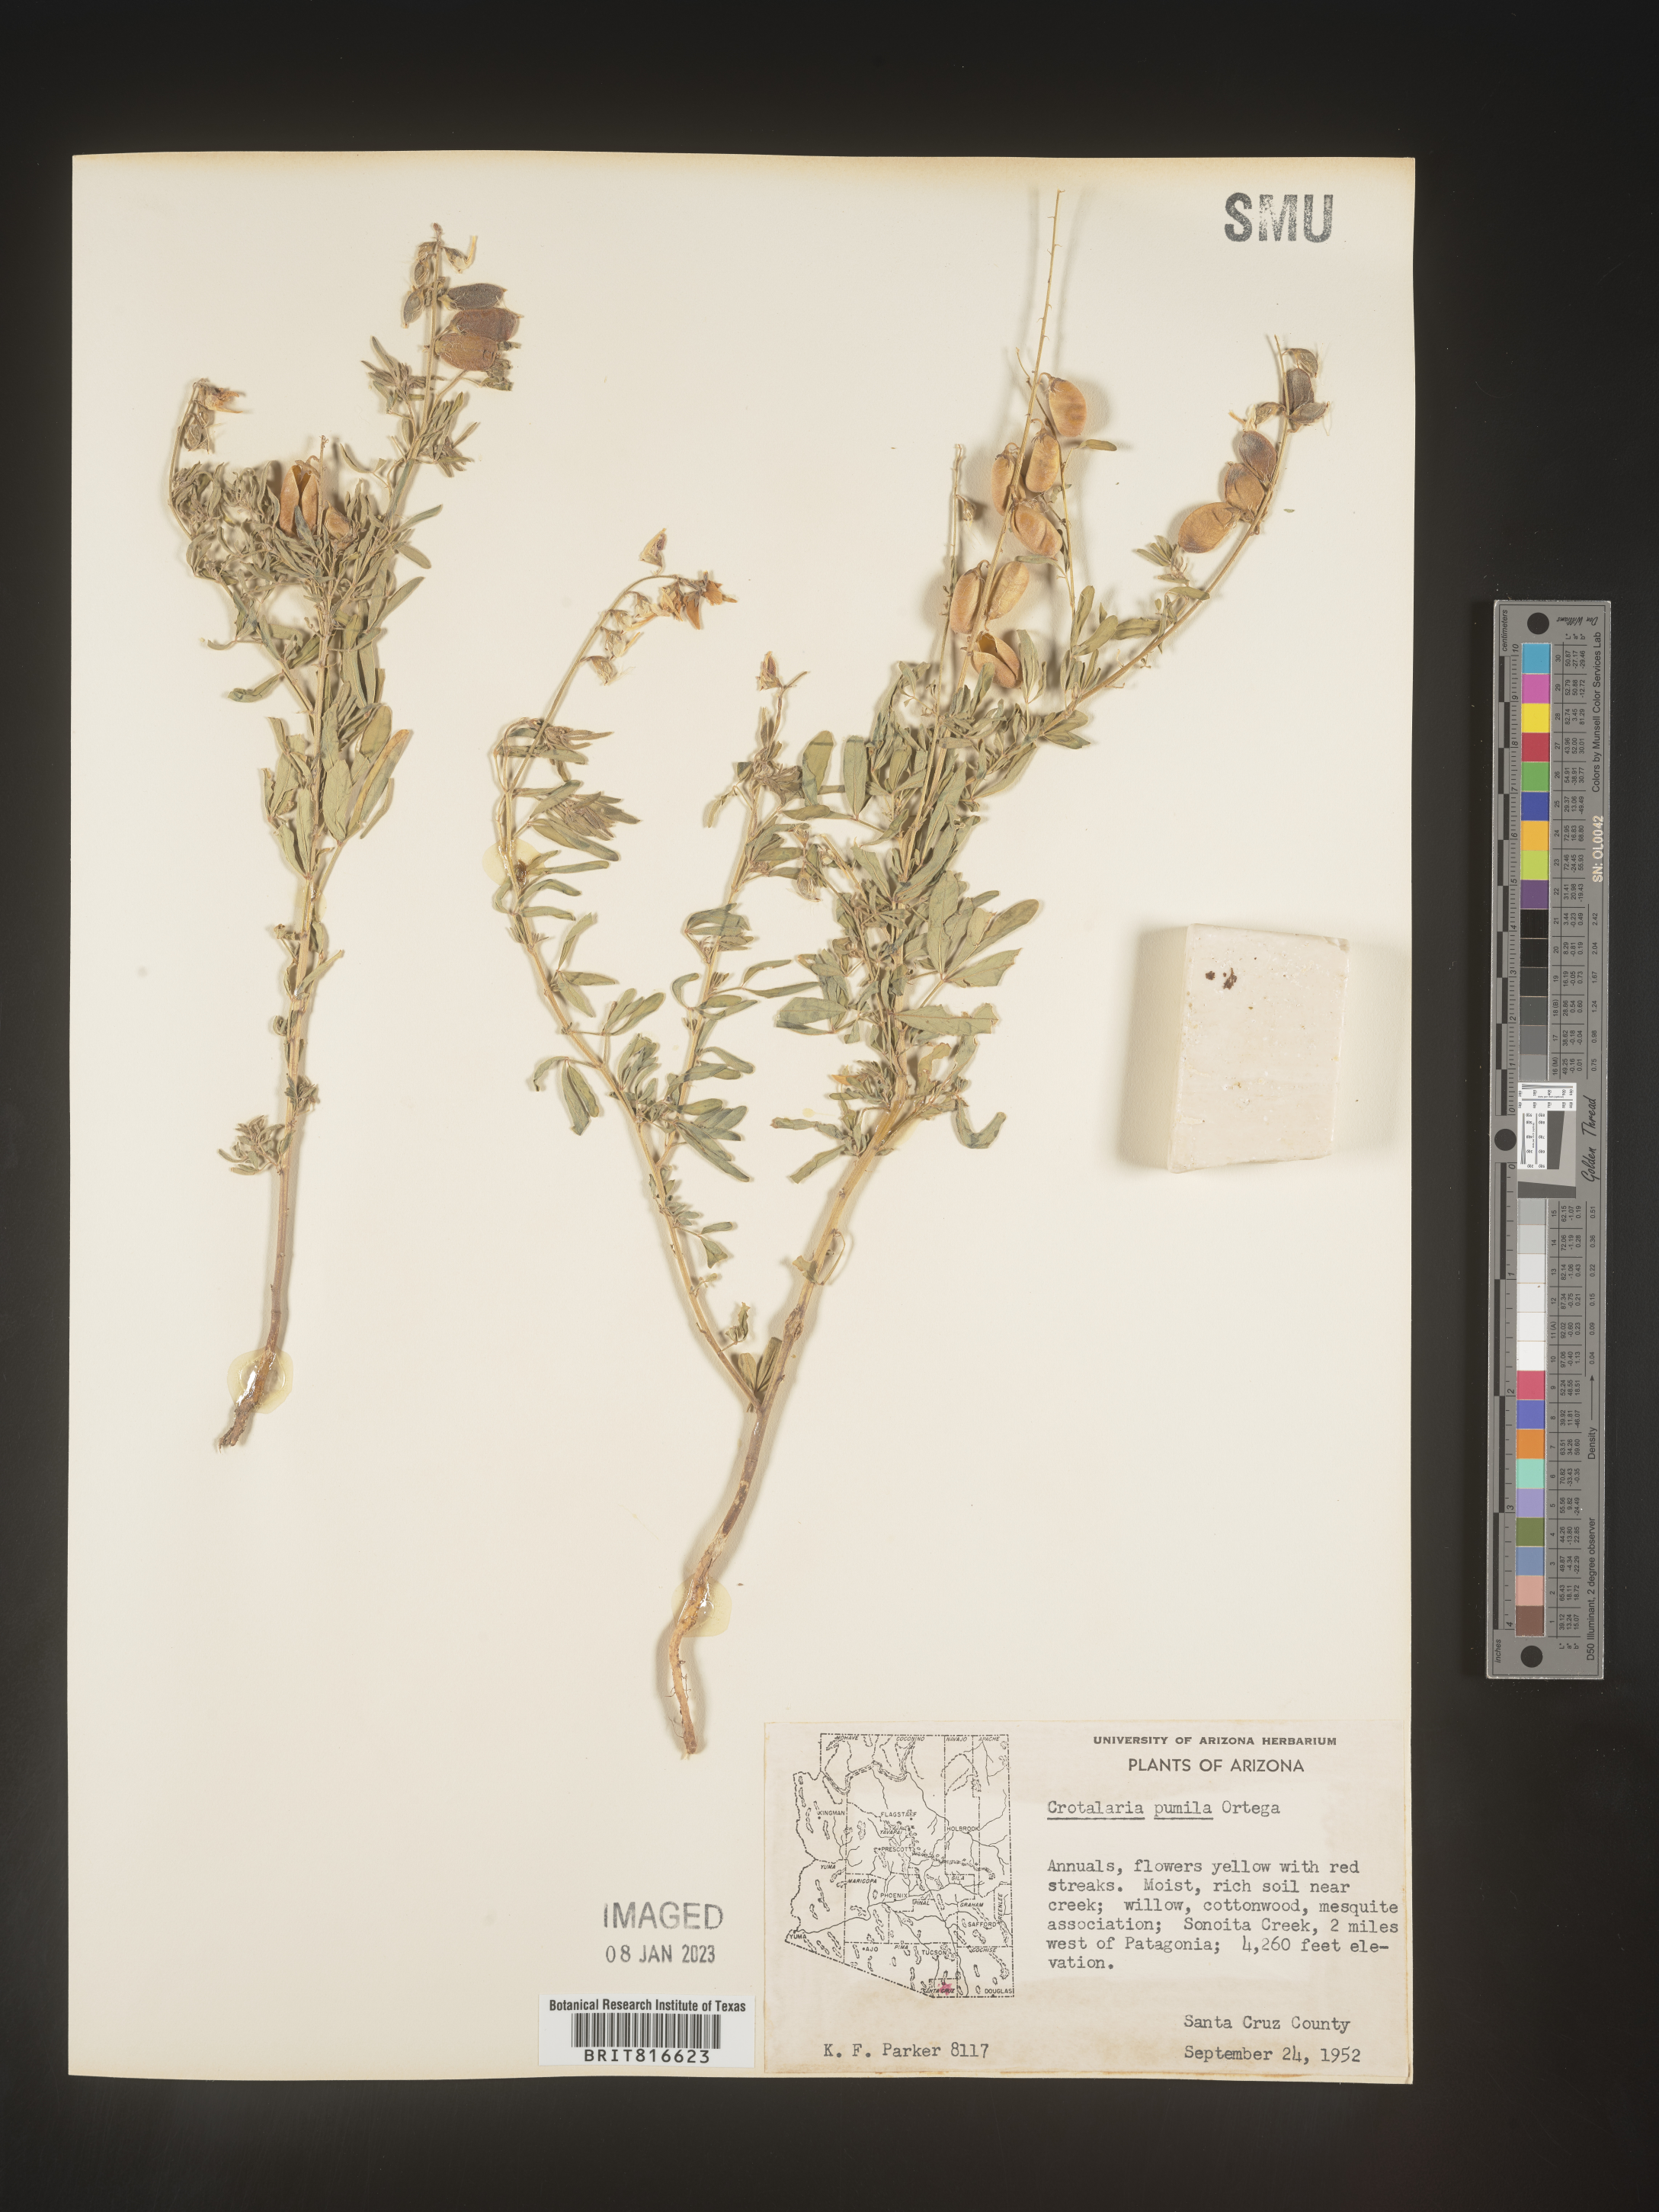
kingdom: Plantae
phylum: Tracheophyta
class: Magnoliopsida
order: Fabales
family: Fabaceae
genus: Crotalaria
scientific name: Crotalaria pumila
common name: Low rattlebox
